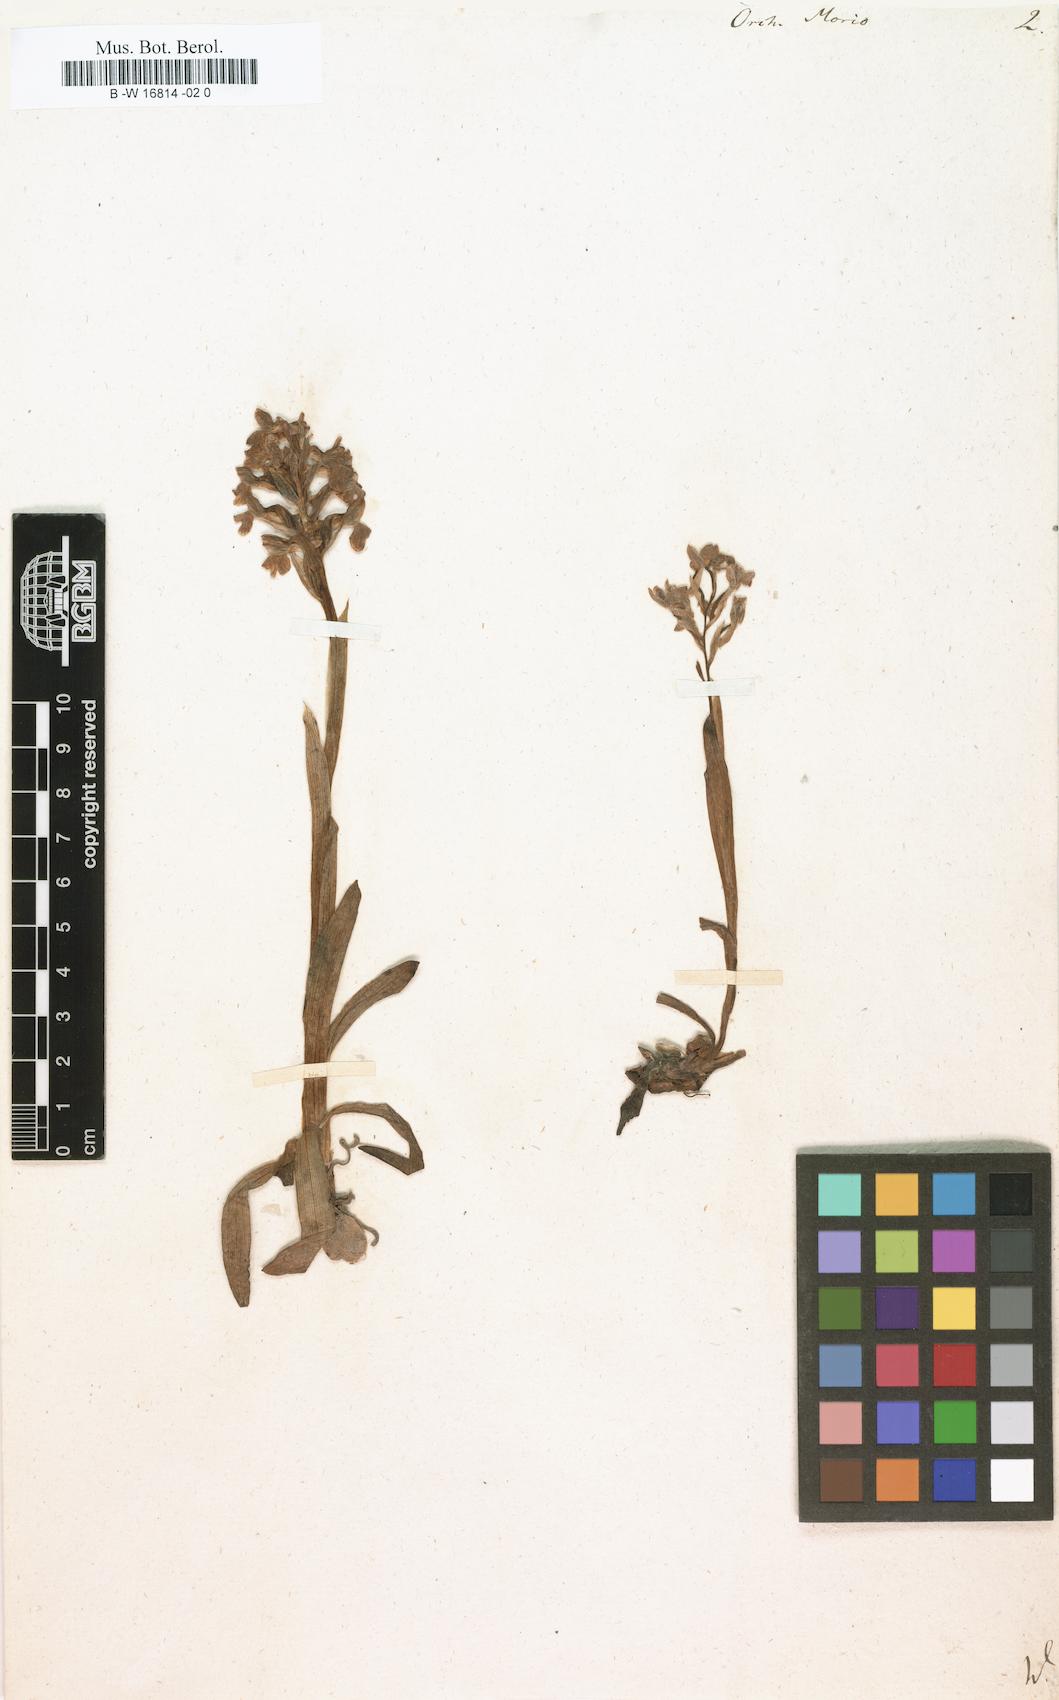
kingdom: Plantae
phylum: Tracheophyta
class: Liliopsida
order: Asparagales
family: Orchidaceae
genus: Anacamptis
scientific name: Anacamptis morio
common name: Green-winged orchid
